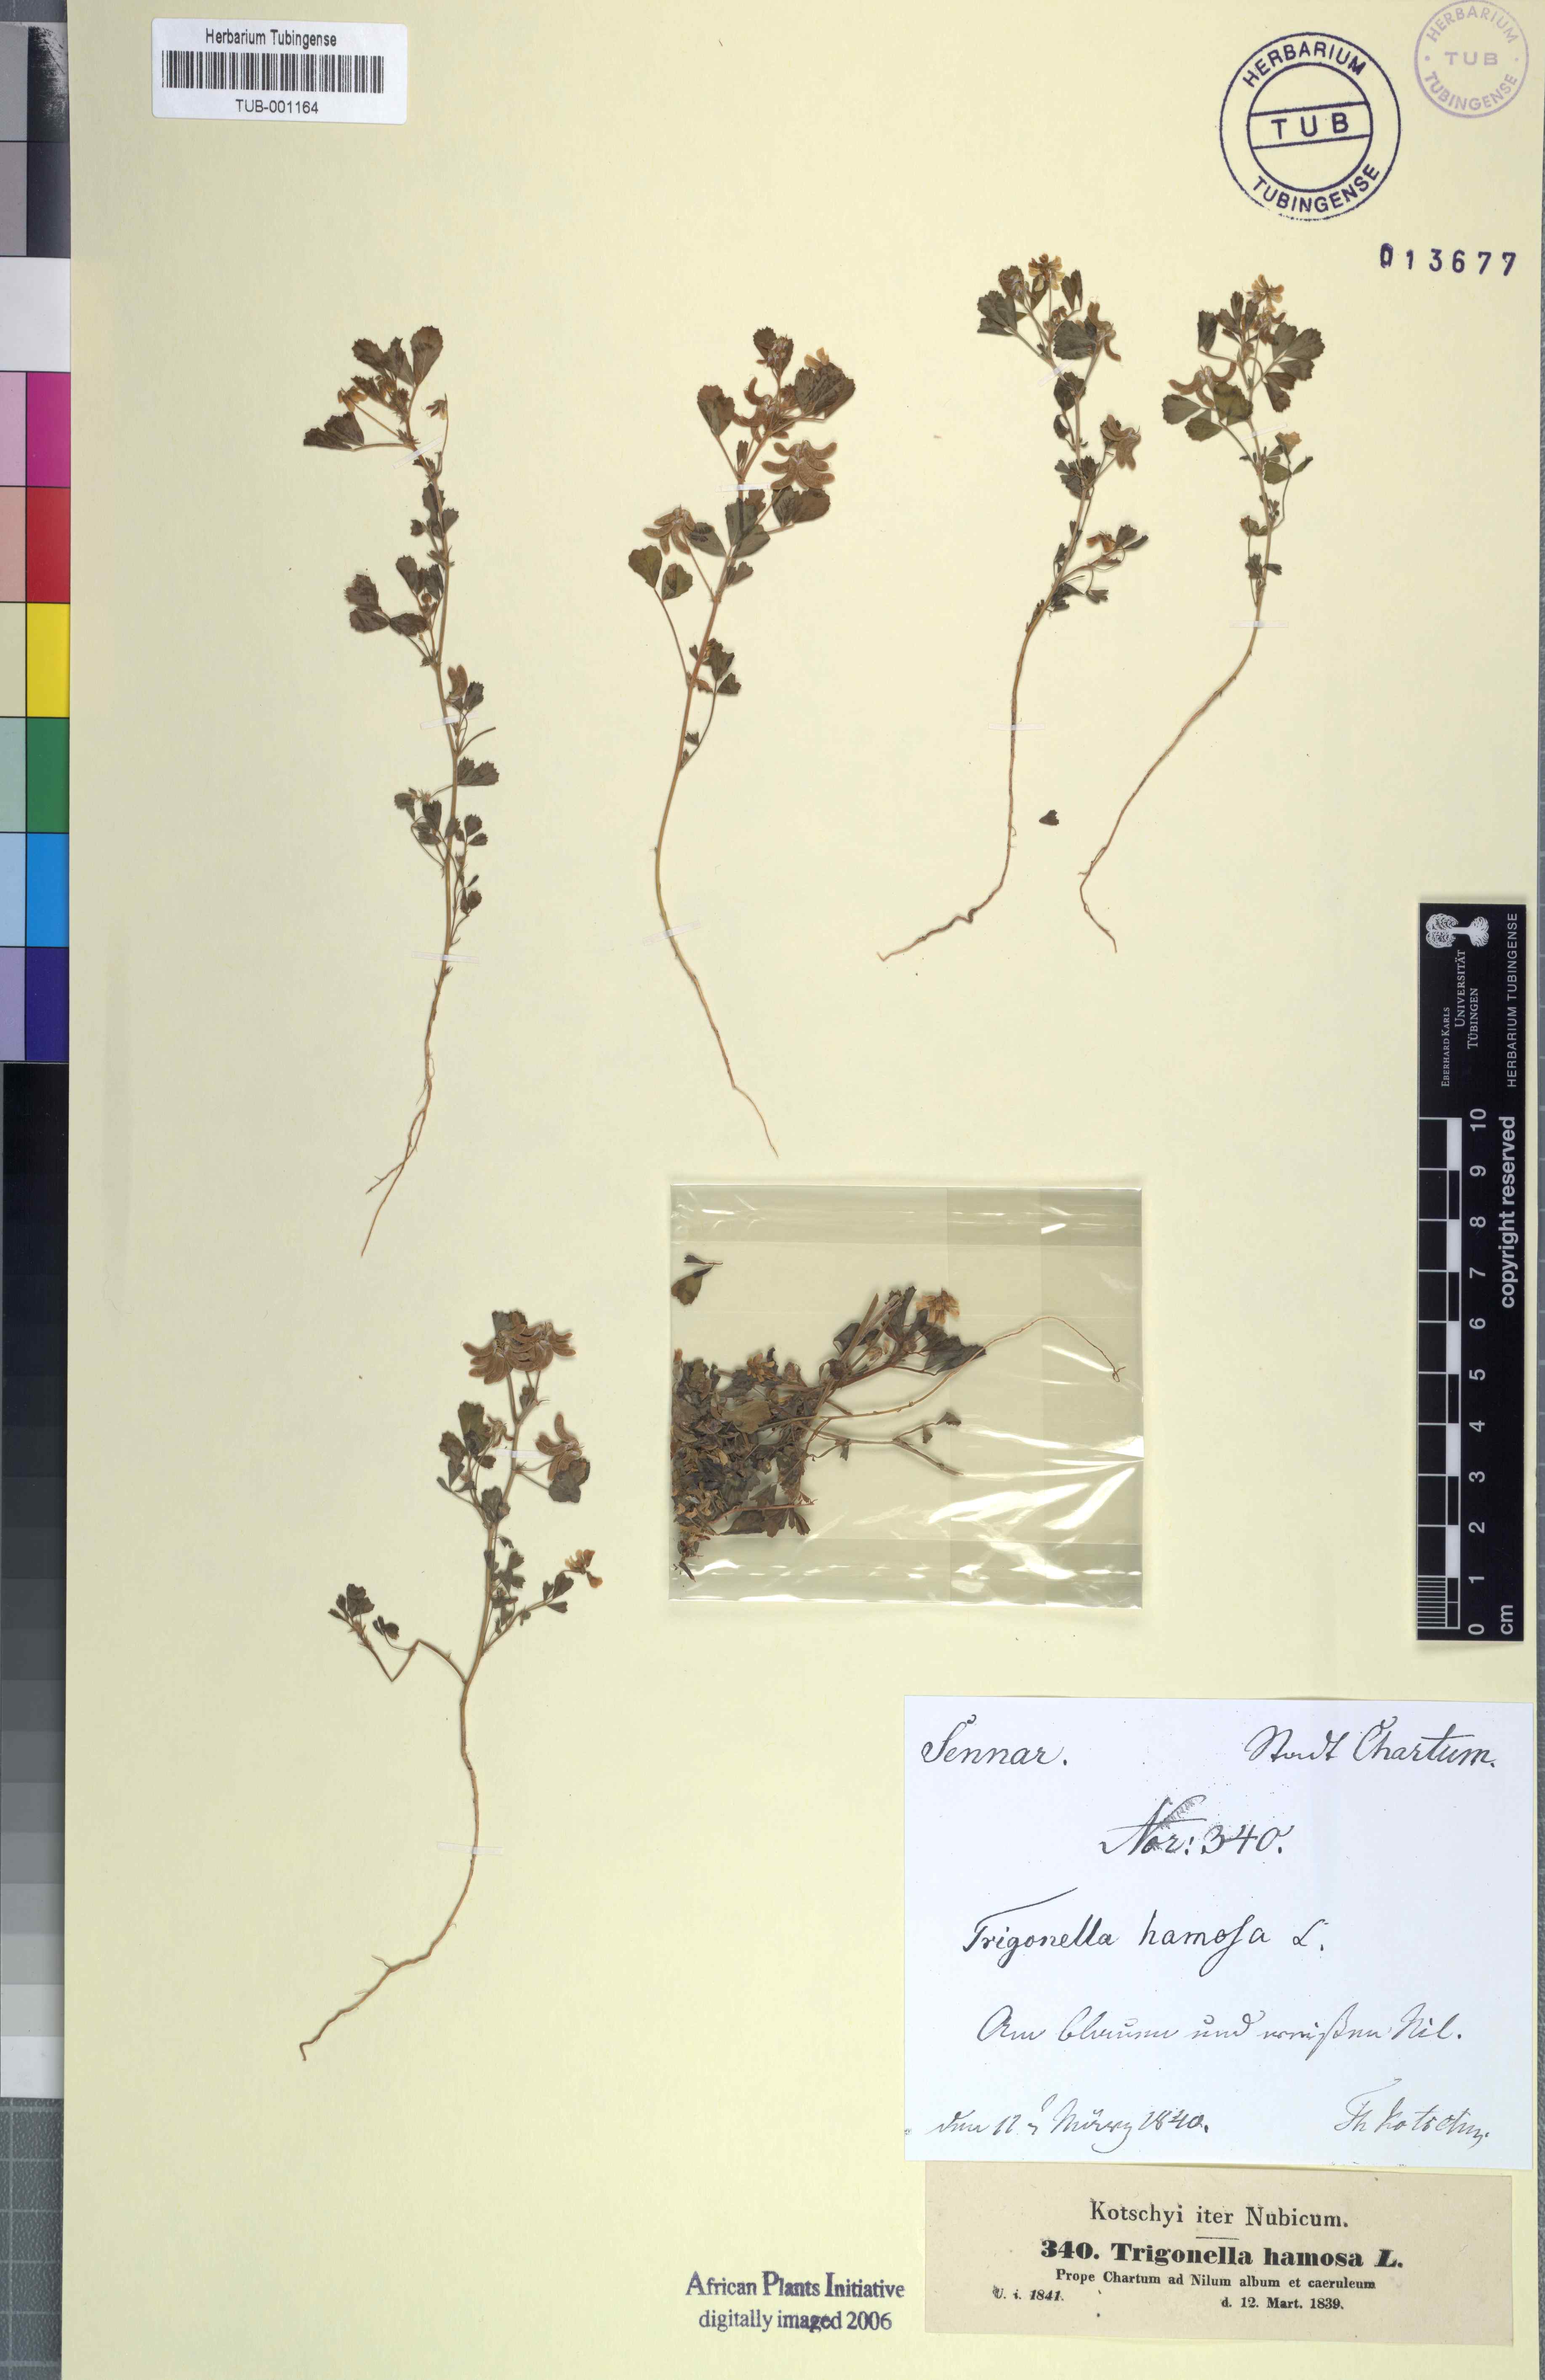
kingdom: Plantae
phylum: Tracheophyta
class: Magnoliopsida
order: Fabales
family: Fabaceae
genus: Trigonella
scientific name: Trigonella glabra
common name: Egyptian fenugreek
